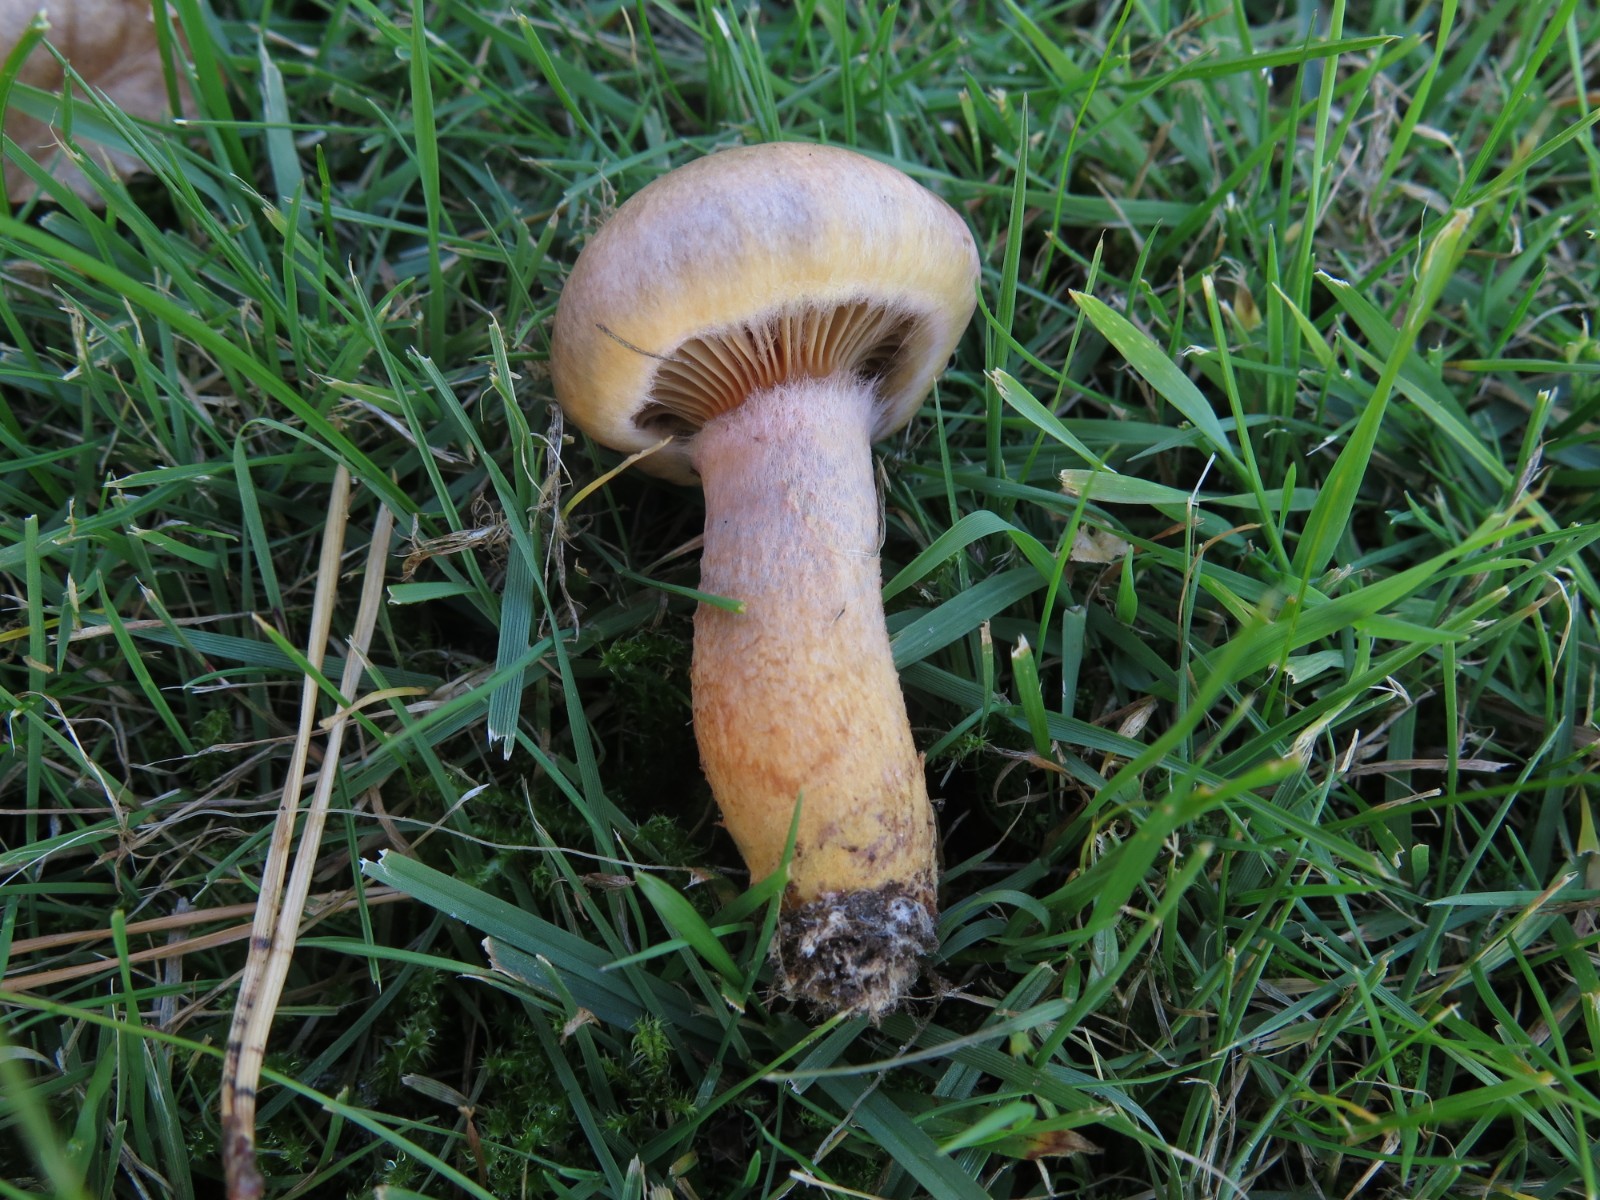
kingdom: Fungi
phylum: Basidiomycota
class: Agaricomycetes
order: Boletales
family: Gomphidiaceae
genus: Chroogomphus
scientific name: Chroogomphus rutilus
